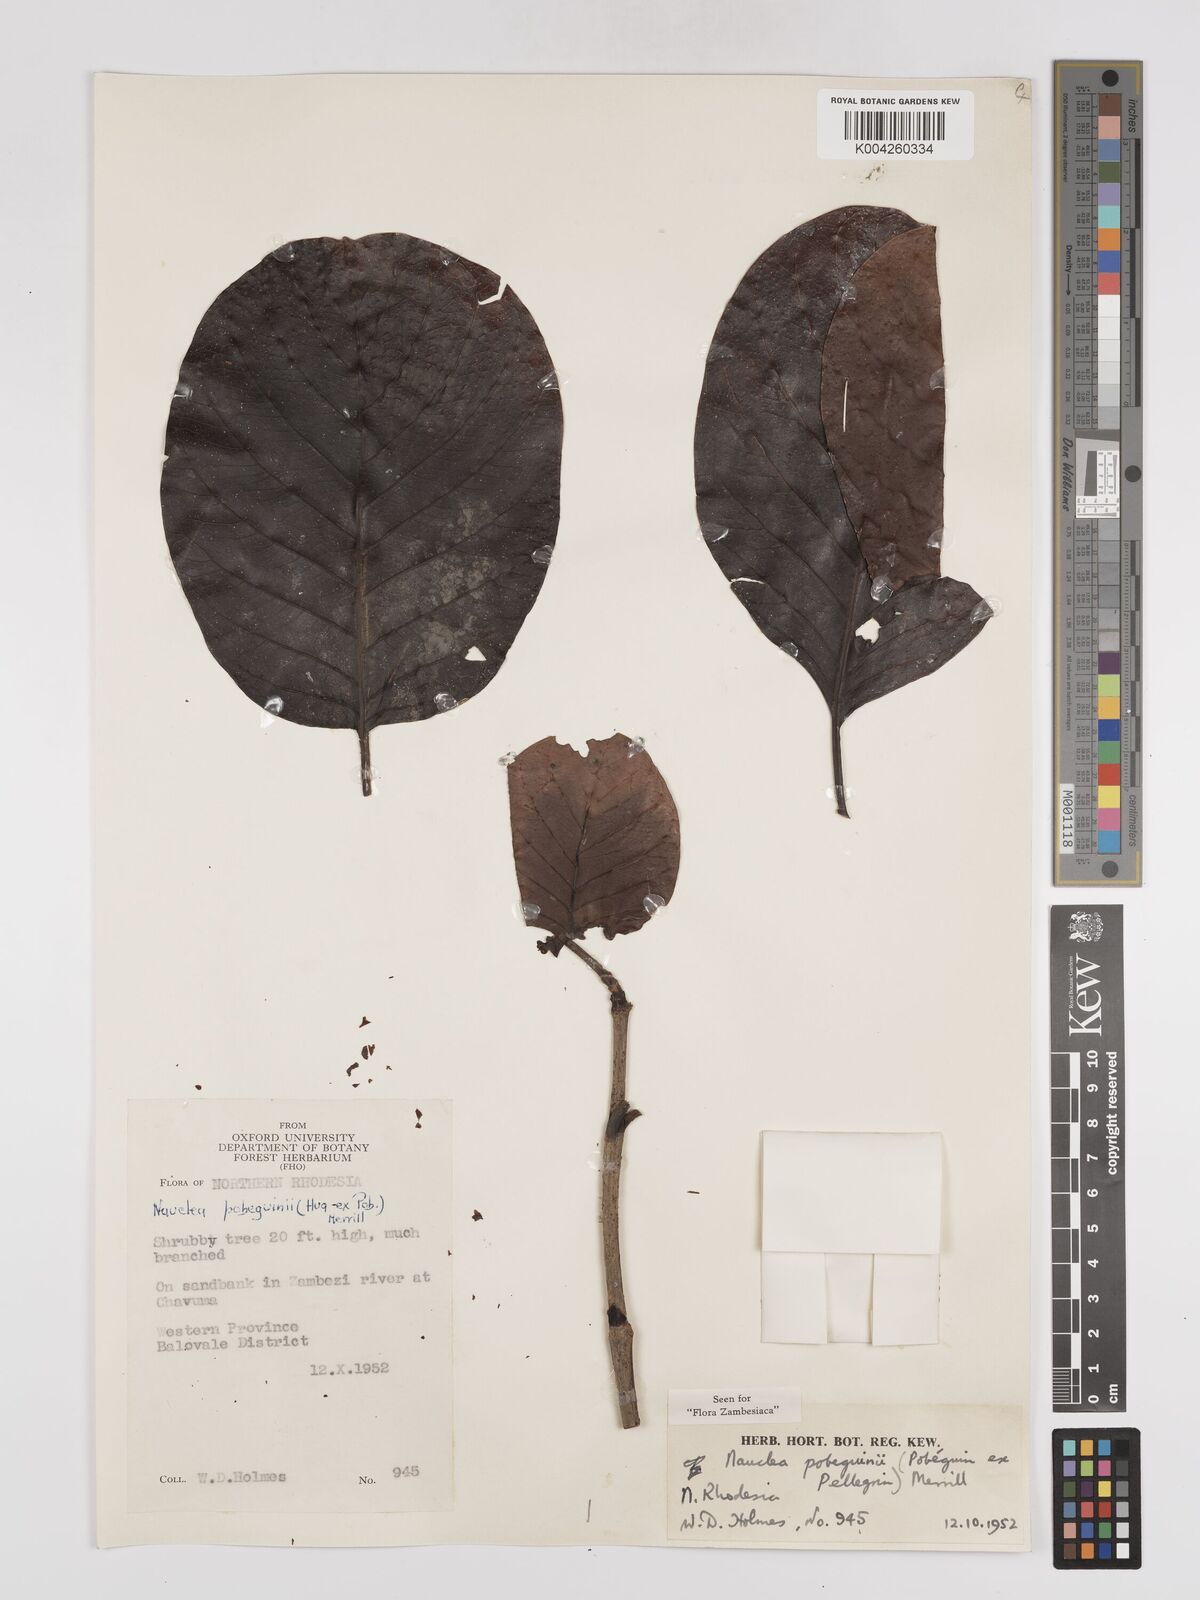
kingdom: Plantae
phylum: Tracheophyta
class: Magnoliopsida
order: Gentianales
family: Rubiaceae
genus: Nauclea
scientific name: Nauclea pobeguinii
